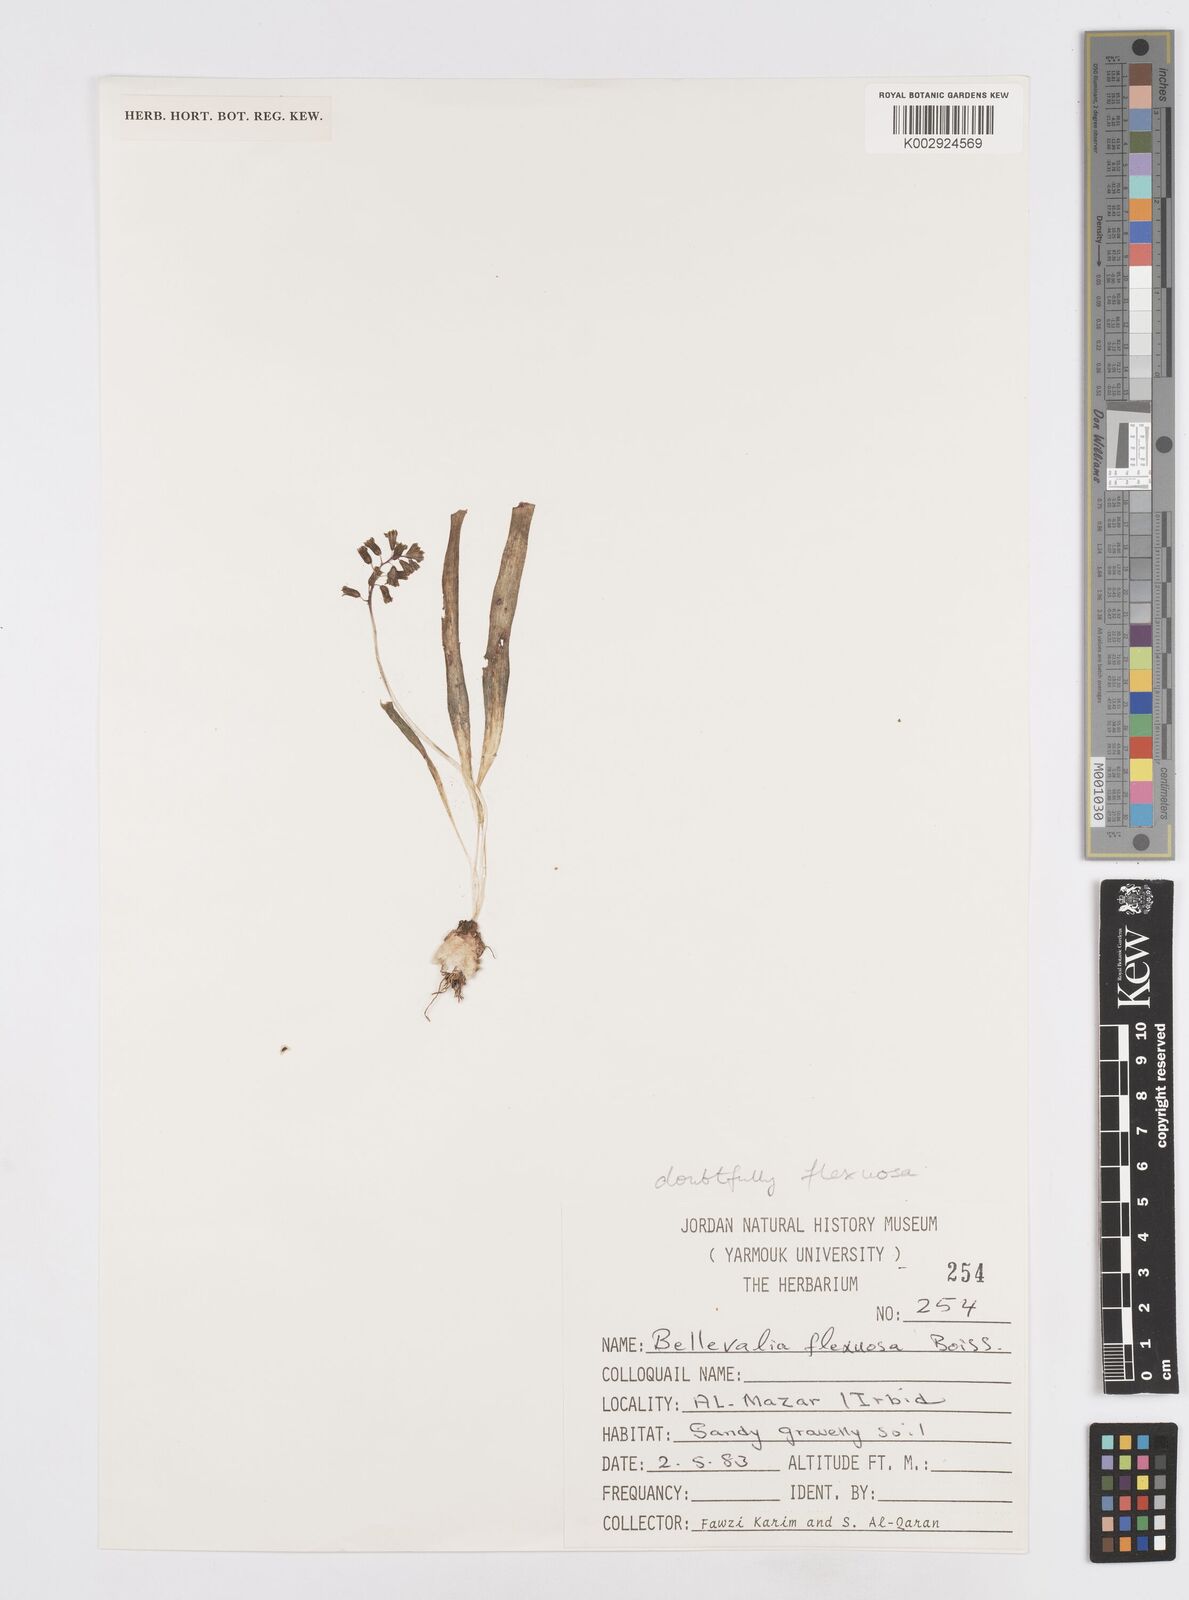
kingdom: Plantae
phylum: Tracheophyta
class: Liliopsida
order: Asparagales
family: Asparagaceae
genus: Bellevalia
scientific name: Bellevalia flexuosa
